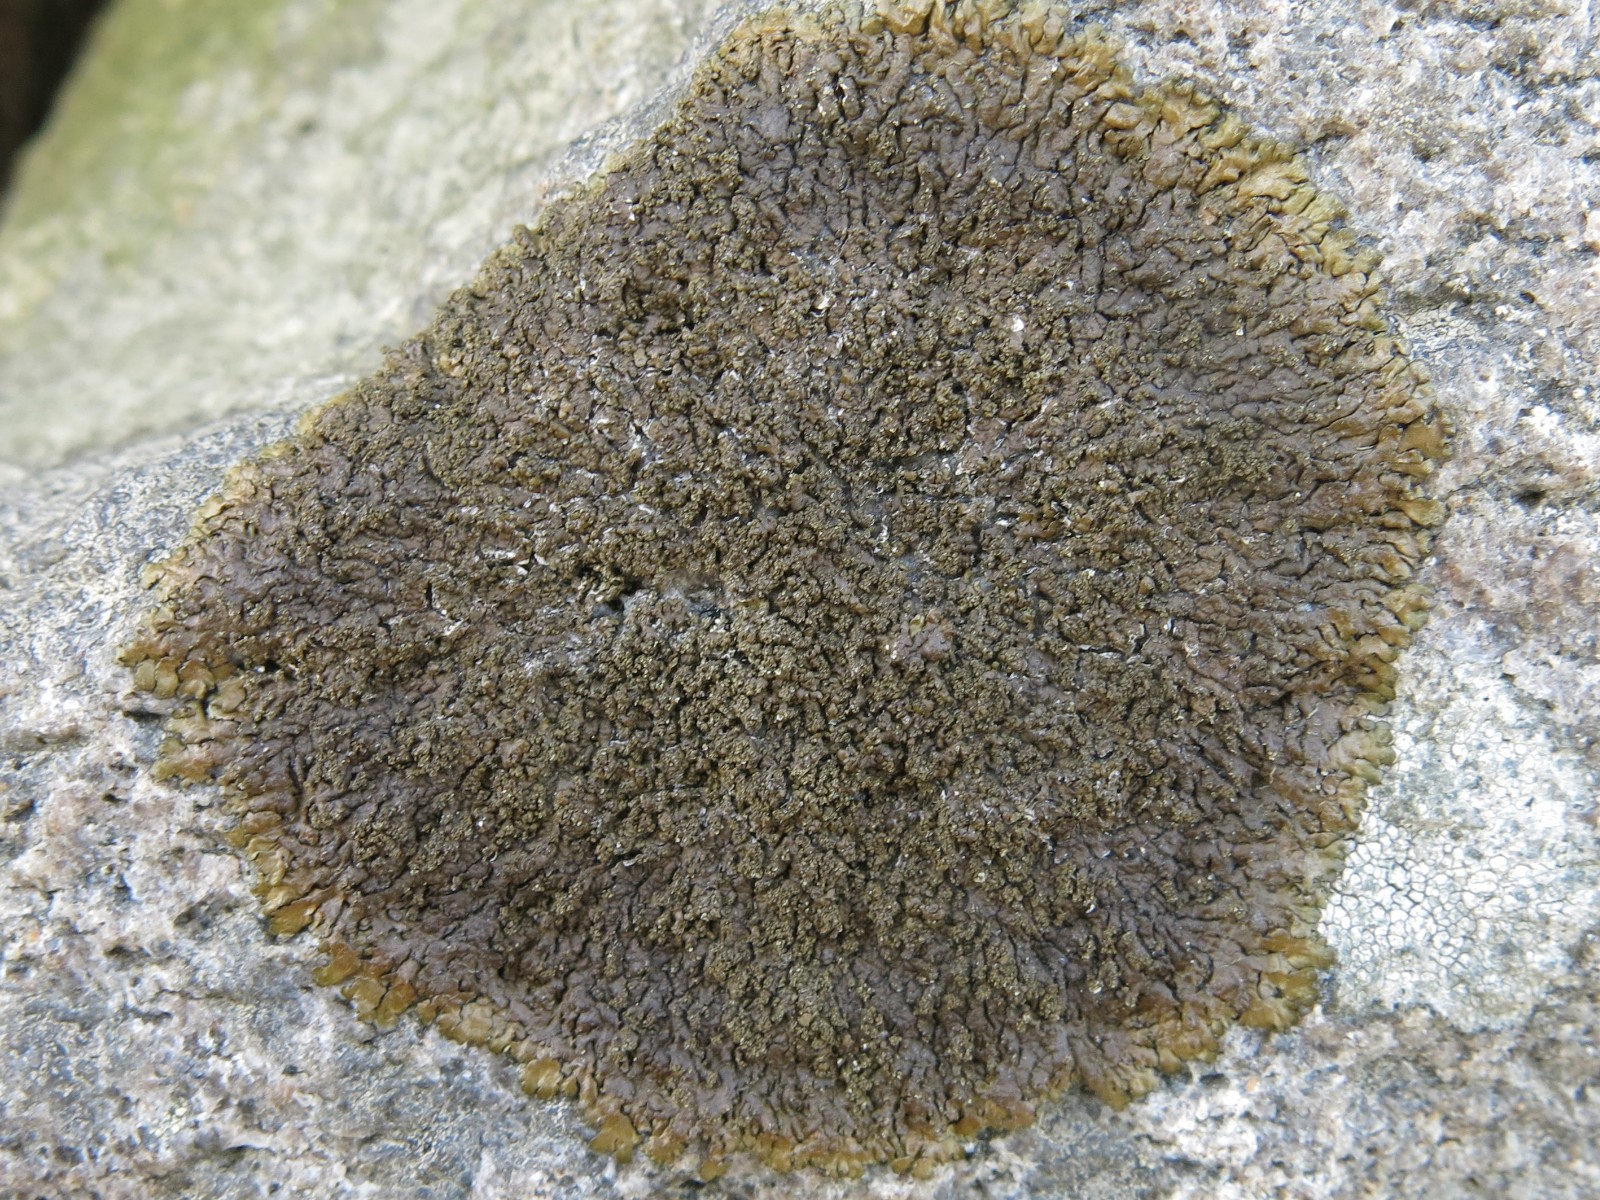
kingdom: Fungi
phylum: Ascomycota
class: Lecanoromycetes
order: Lecanorales
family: Parmeliaceae
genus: Xanthoparmelia
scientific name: Xanthoparmelia verruculifera
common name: småknoppet skållav
